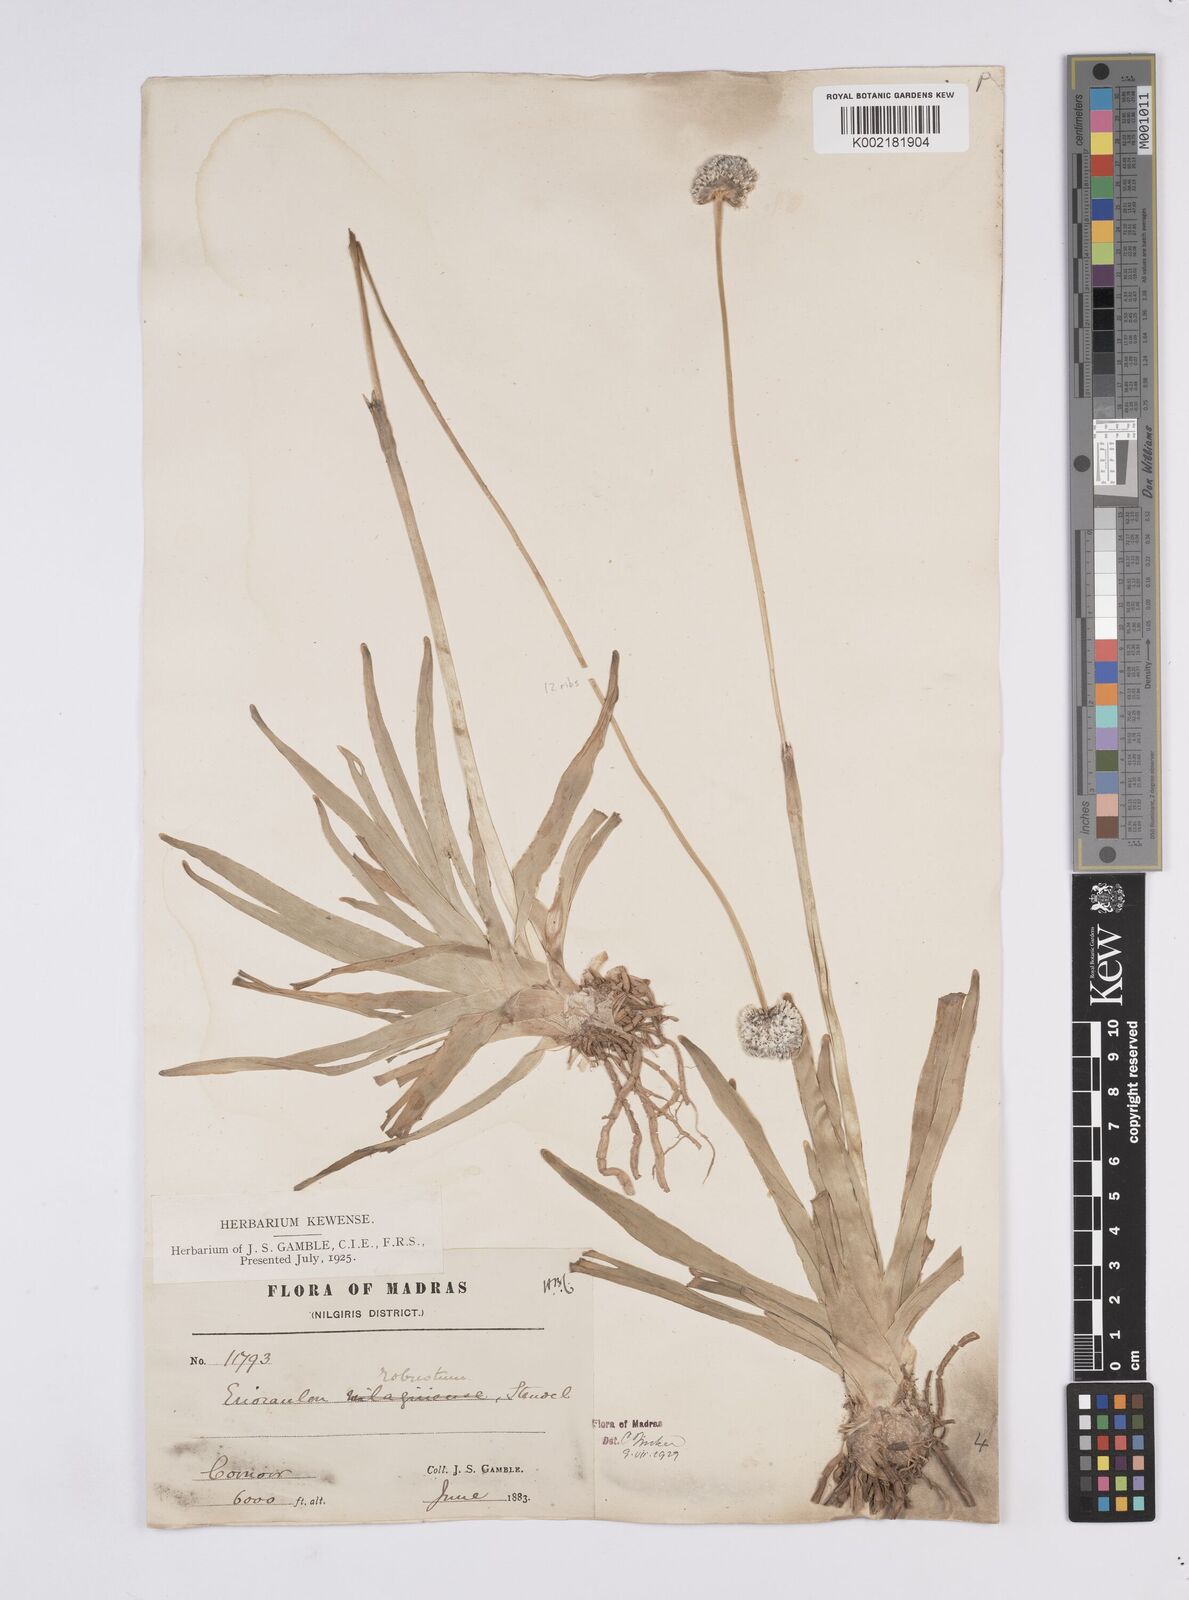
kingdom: Plantae
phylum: Tracheophyta
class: Liliopsida
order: Poales
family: Eriocaulaceae
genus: Eriocaulon
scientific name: Eriocaulon robustum
